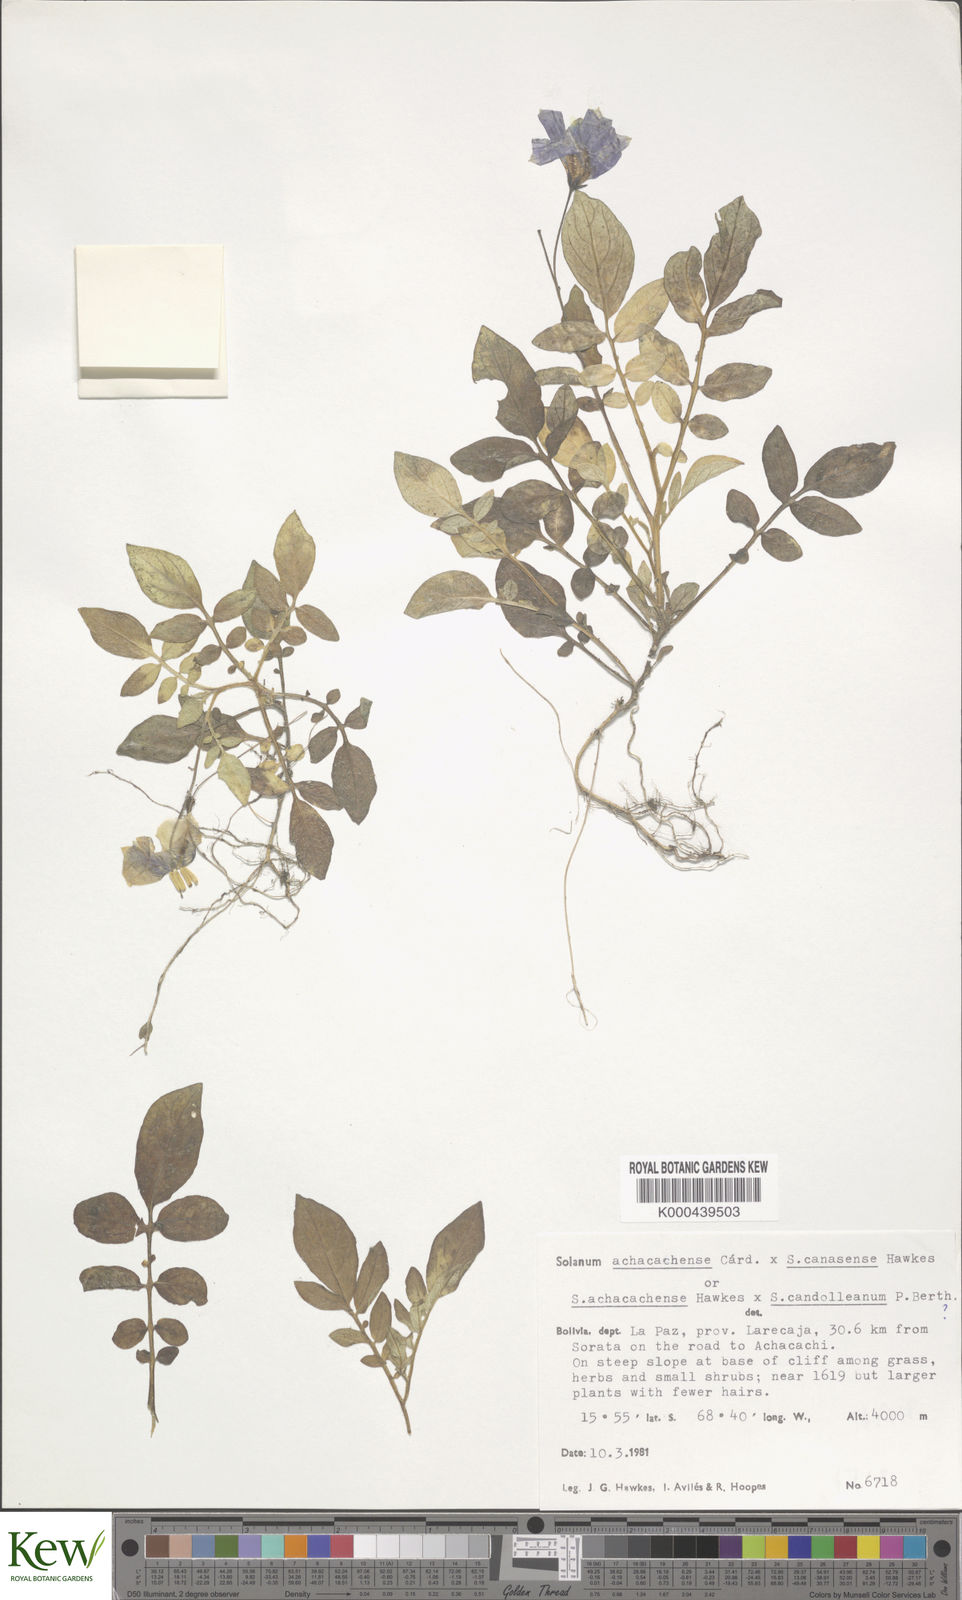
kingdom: Plantae
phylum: Tracheophyta
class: Magnoliopsida
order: Solanales
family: Solanaceae
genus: Solanum
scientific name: Solanum brevicaule
